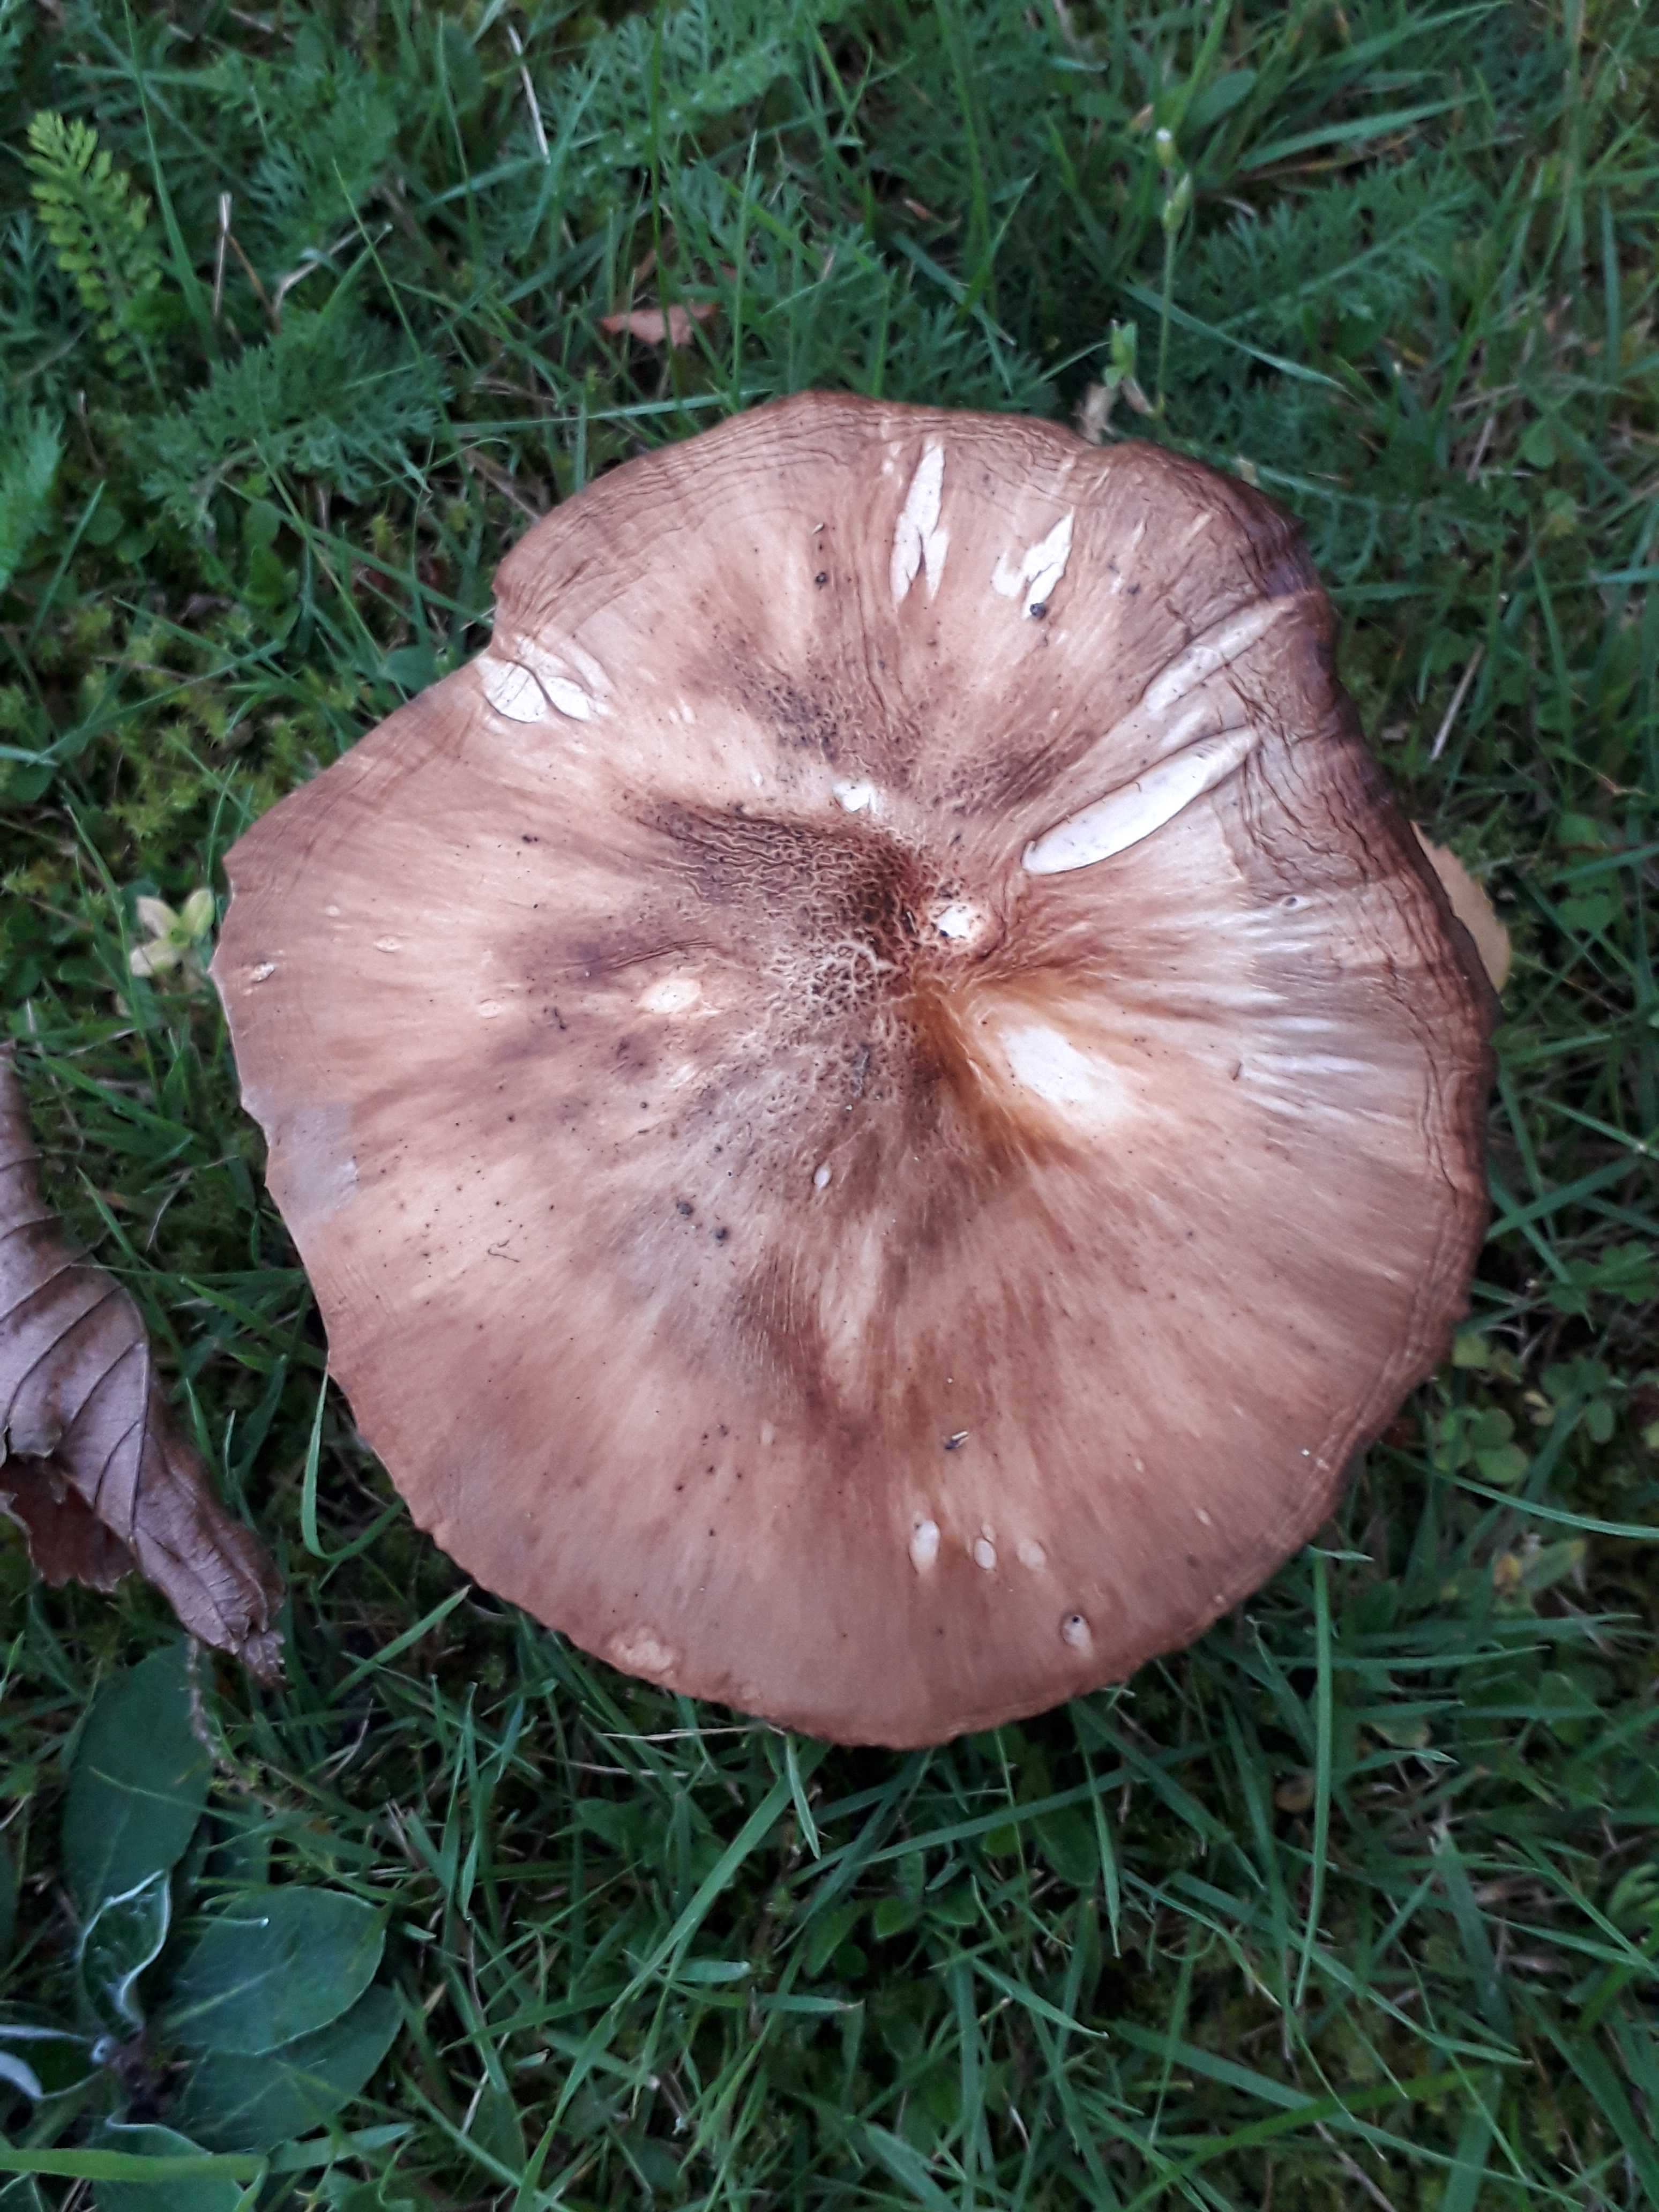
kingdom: Fungi
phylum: Basidiomycota
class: Agaricomycetes
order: Agaricales
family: Pluteaceae
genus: Pluteus
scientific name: Pluteus cervinus
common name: sodfarvet skærmhat
